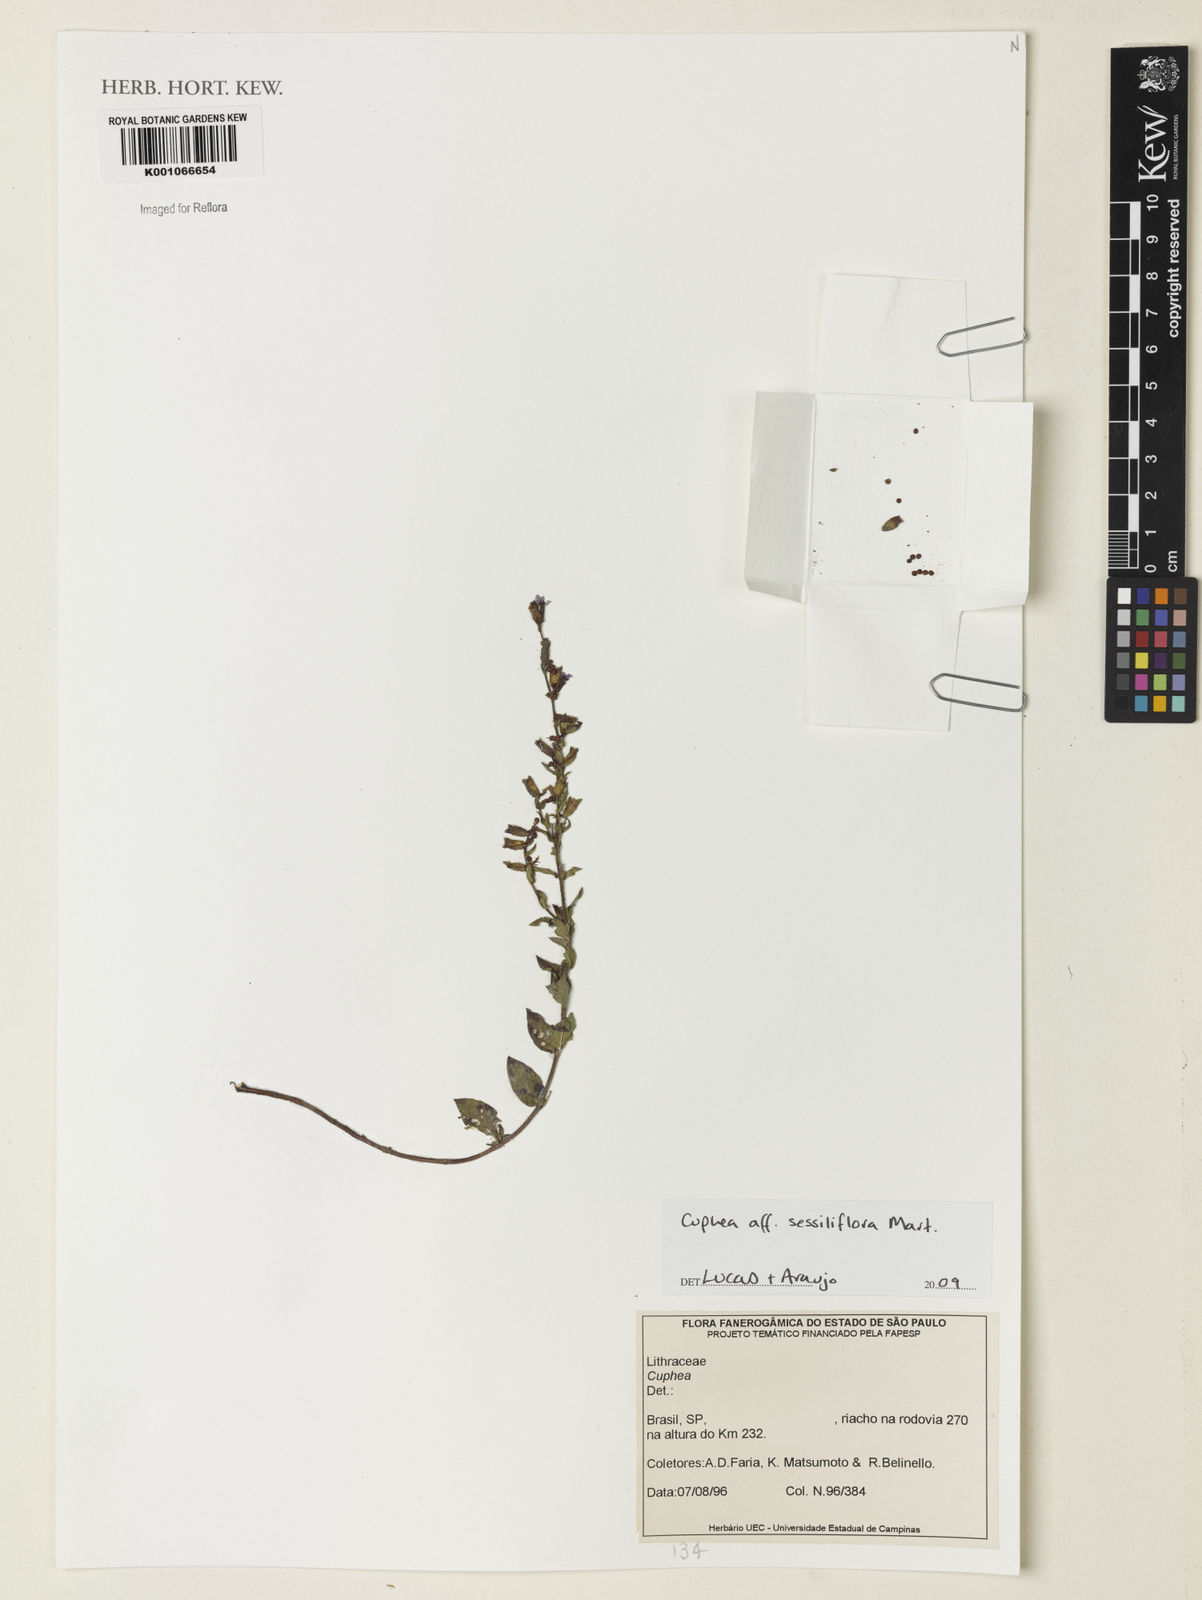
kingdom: Plantae
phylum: Tracheophyta
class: Magnoliopsida
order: Myrtales
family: Lythraceae
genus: Cuphea
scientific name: Cuphea sessiliflora
